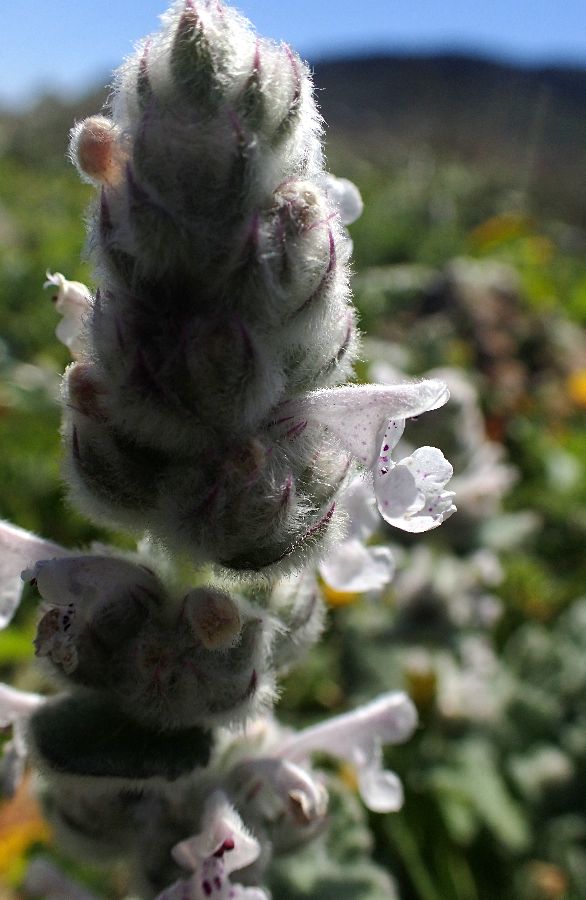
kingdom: Plantae
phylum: Tracheophyta
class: Magnoliopsida
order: Lamiales
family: Lamiaceae
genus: Nepeta
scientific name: Nepeta cataria
